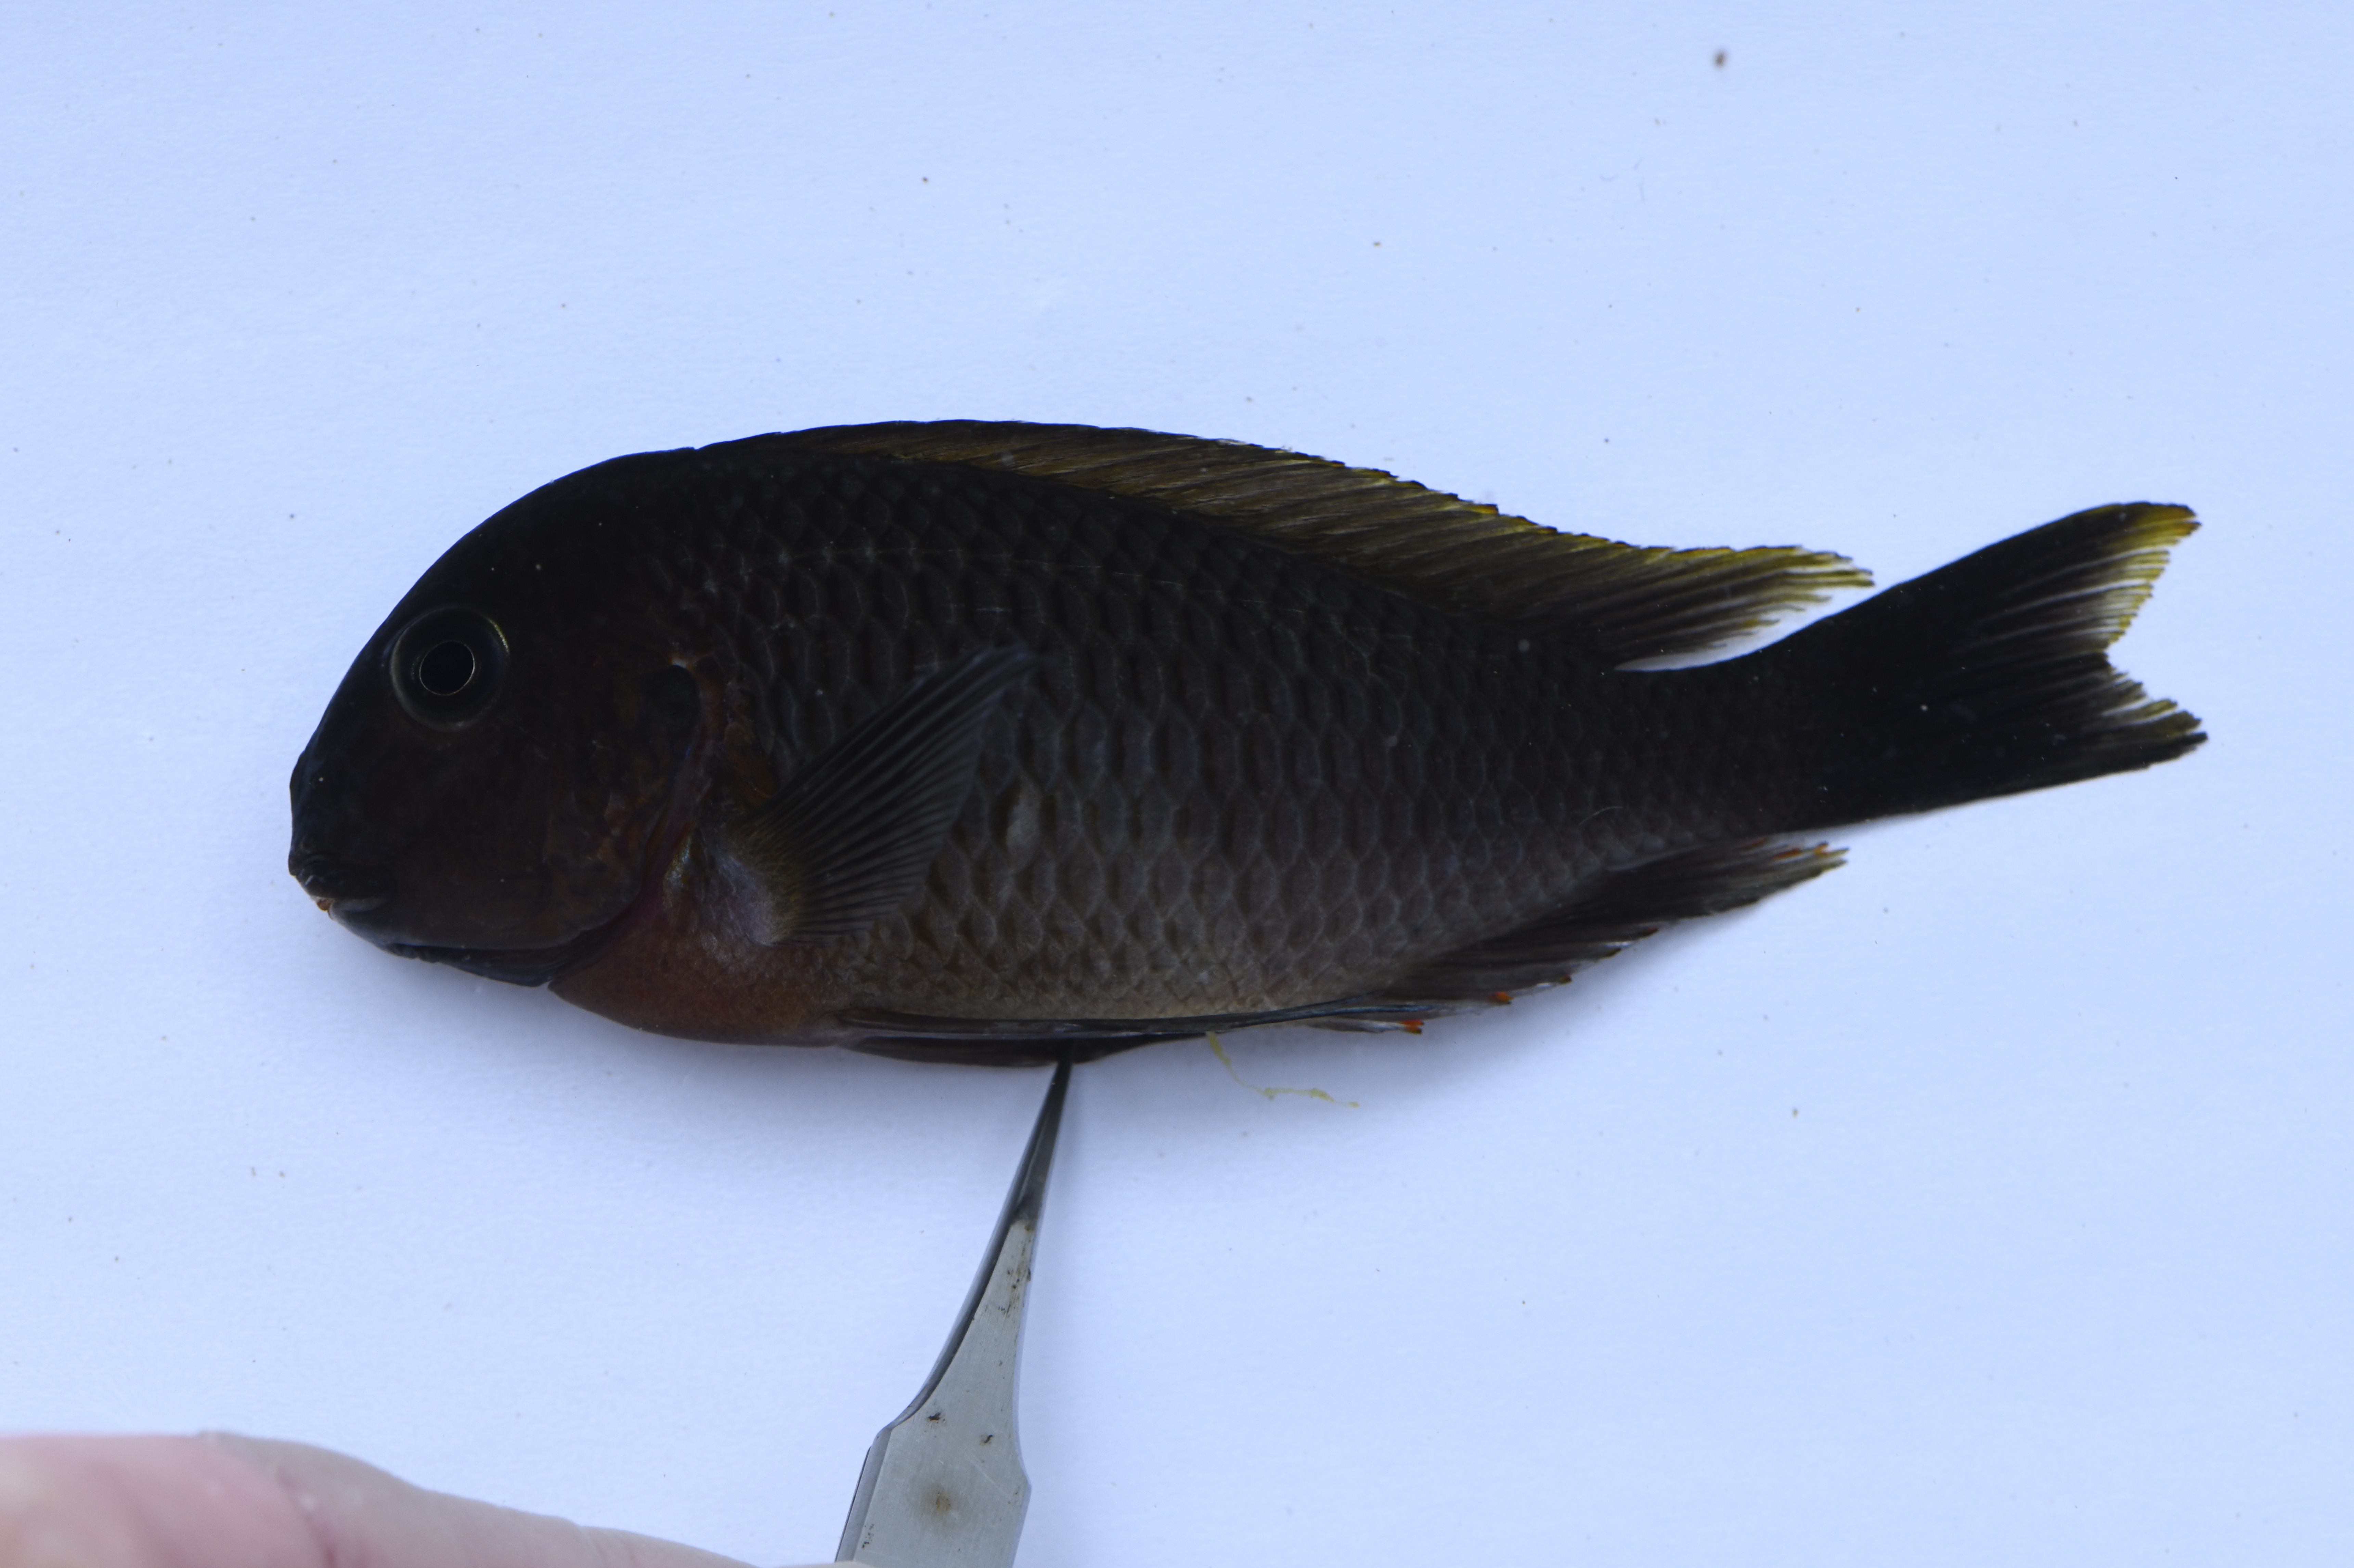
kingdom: Animalia
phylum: Chordata
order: Perciformes
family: Cichlidae
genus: Tropheus
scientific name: Tropheus moorii
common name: Blunthead cichlid
